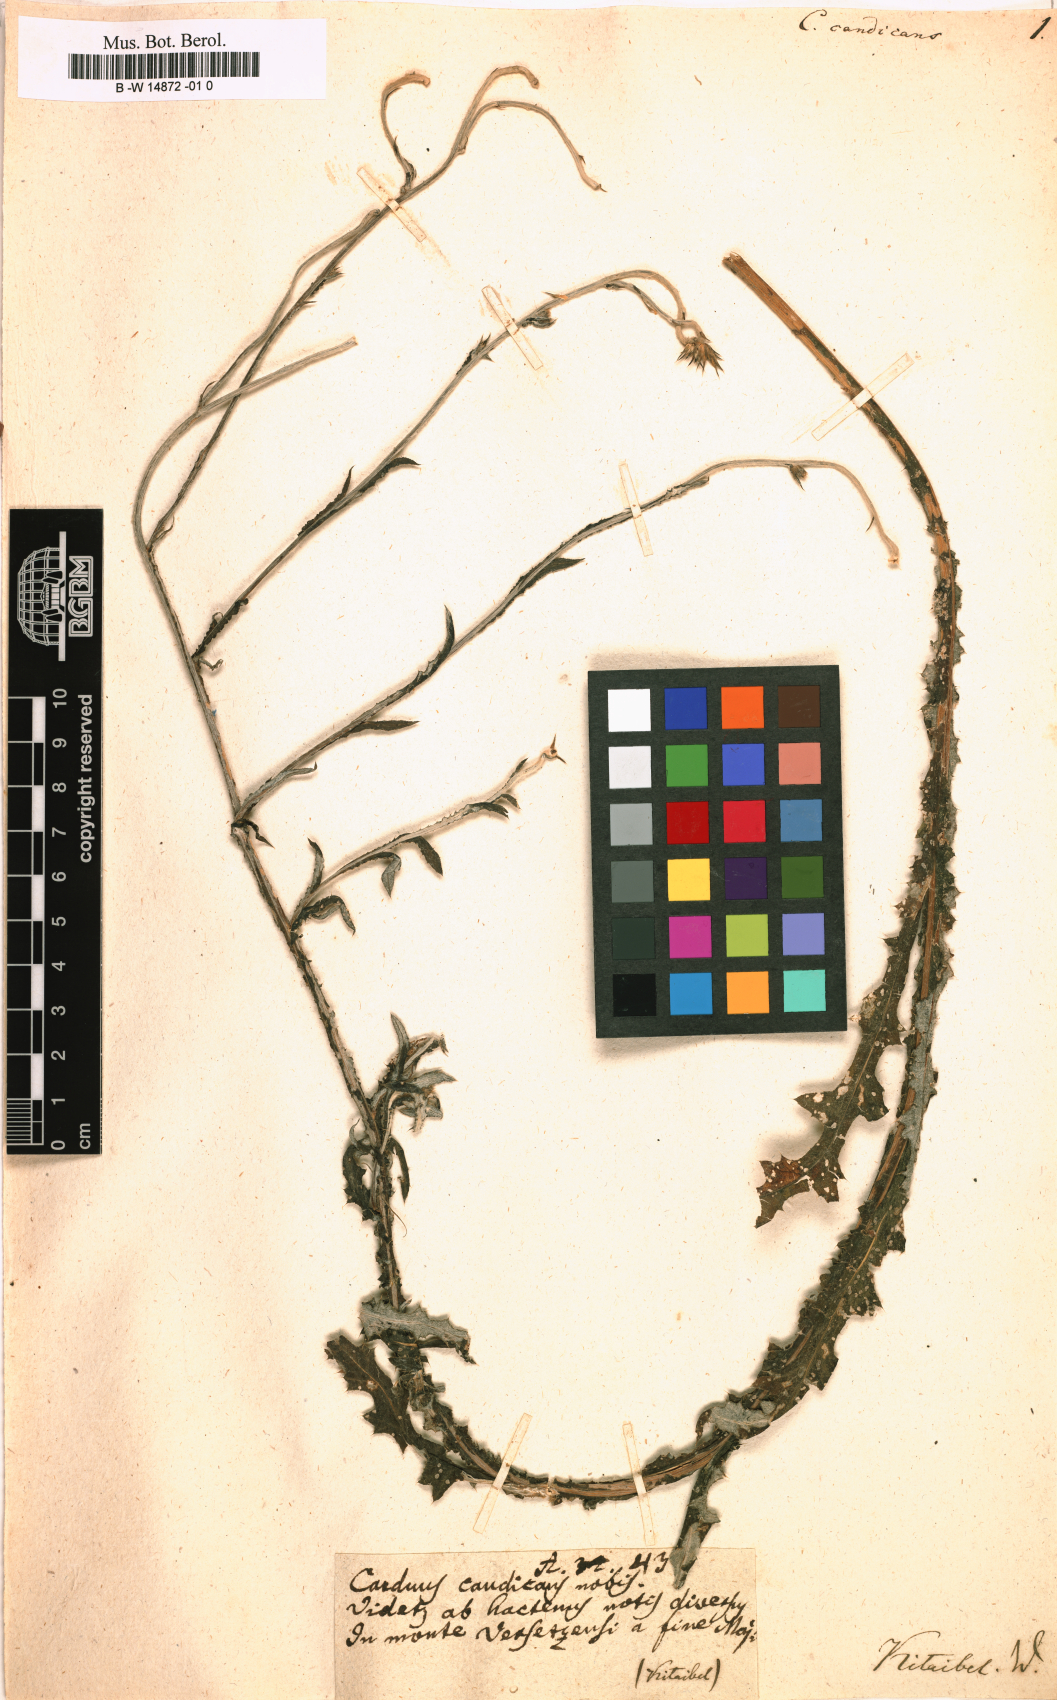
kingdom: Plantae
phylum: Tracheophyta
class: Magnoliopsida
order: Asterales
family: Asteraceae
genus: Carduus
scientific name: Carduus candicans
